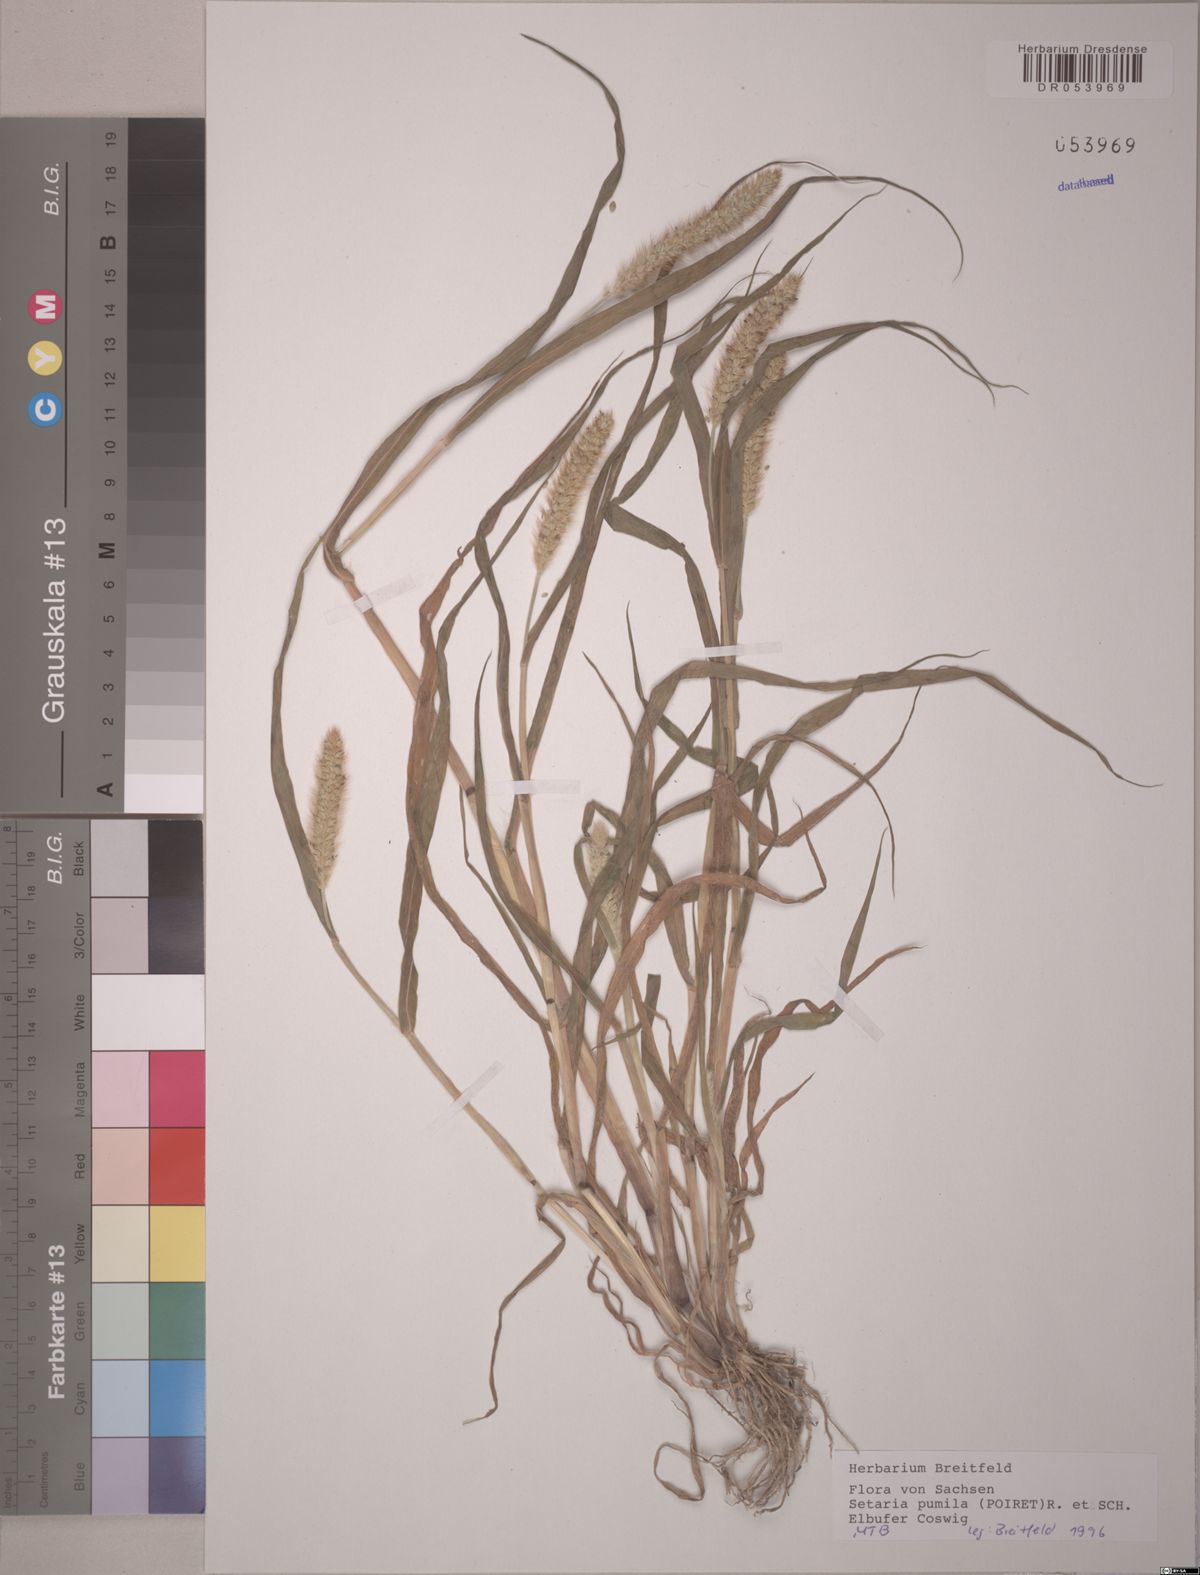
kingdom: Plantae
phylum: Tracheophyta
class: Liliopsida
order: Poales
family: Poaceae
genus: Setaria
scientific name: Setaria pumila
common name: Yellow bristle-grass
